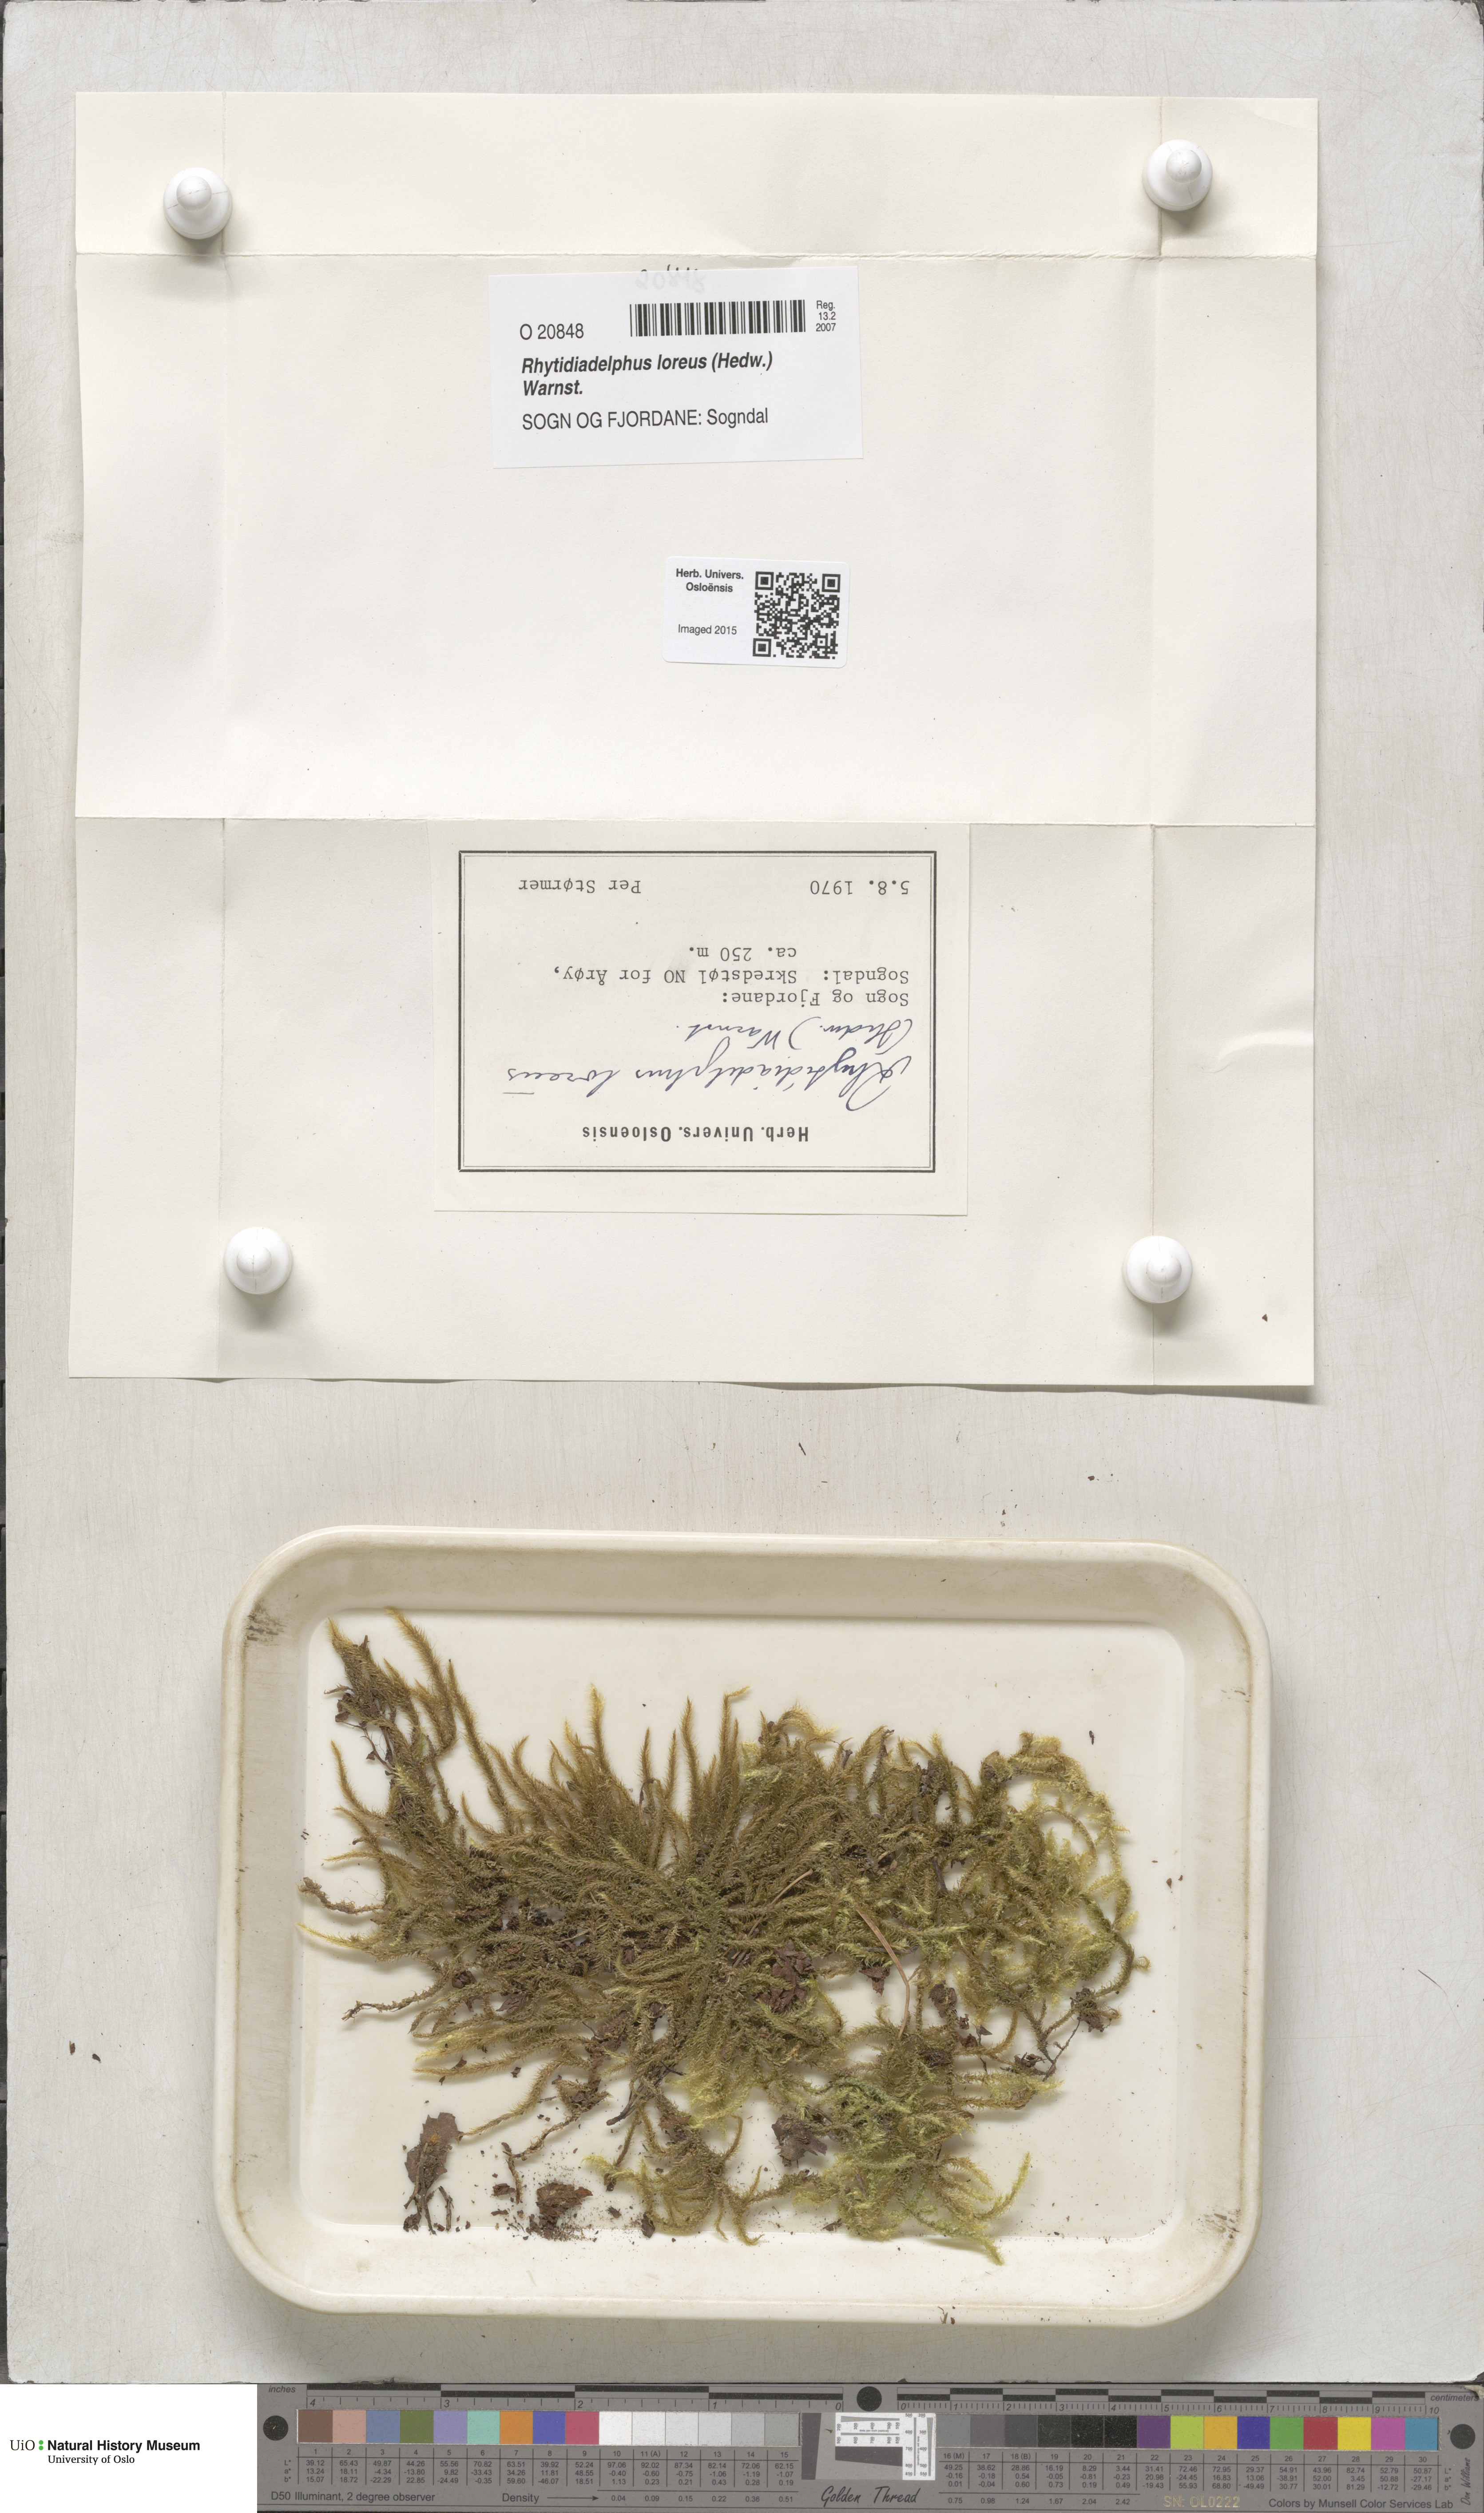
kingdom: Plantae
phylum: Bryophyta
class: Bryopsida
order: Hypnales
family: Hylocomiaceae
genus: Rhytidiadelphus
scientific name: Rhytidiadelphus loreus
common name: Lanky moss
